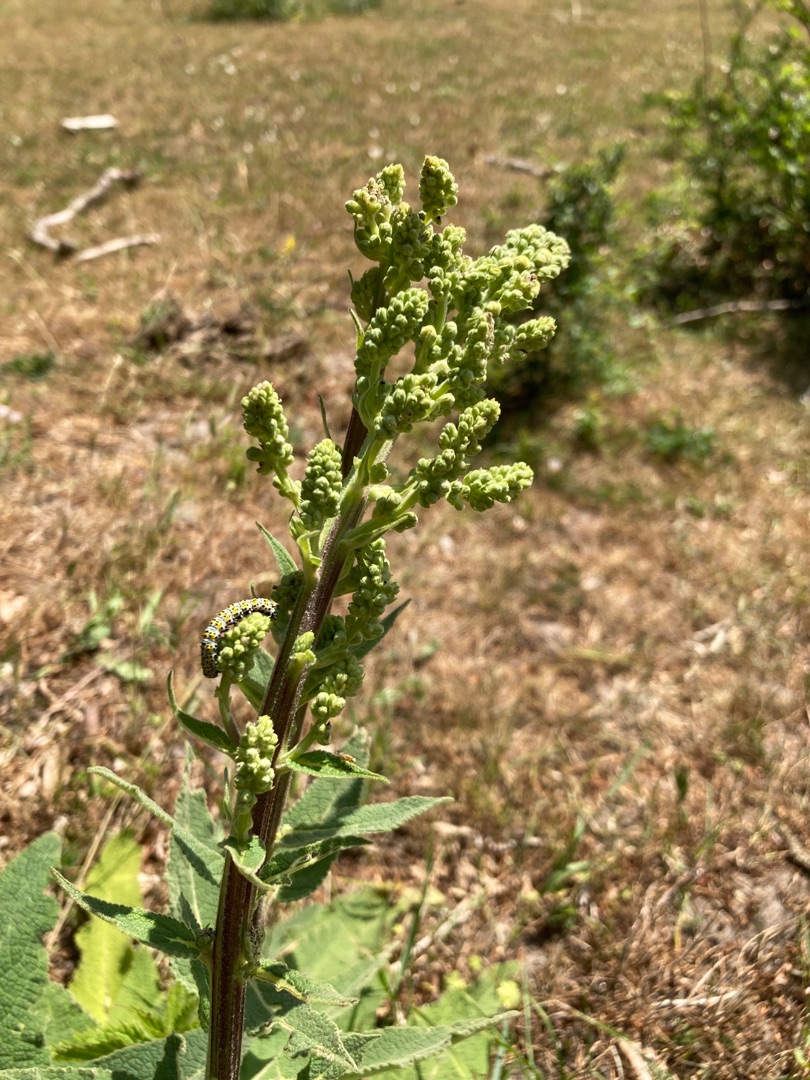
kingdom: Plantae
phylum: Tracheophyta
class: Magnoliopsida
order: Lamiales
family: Scrophulariaceae
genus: Verbascum
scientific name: Verbascum nigrum
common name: Mørk kongelys
